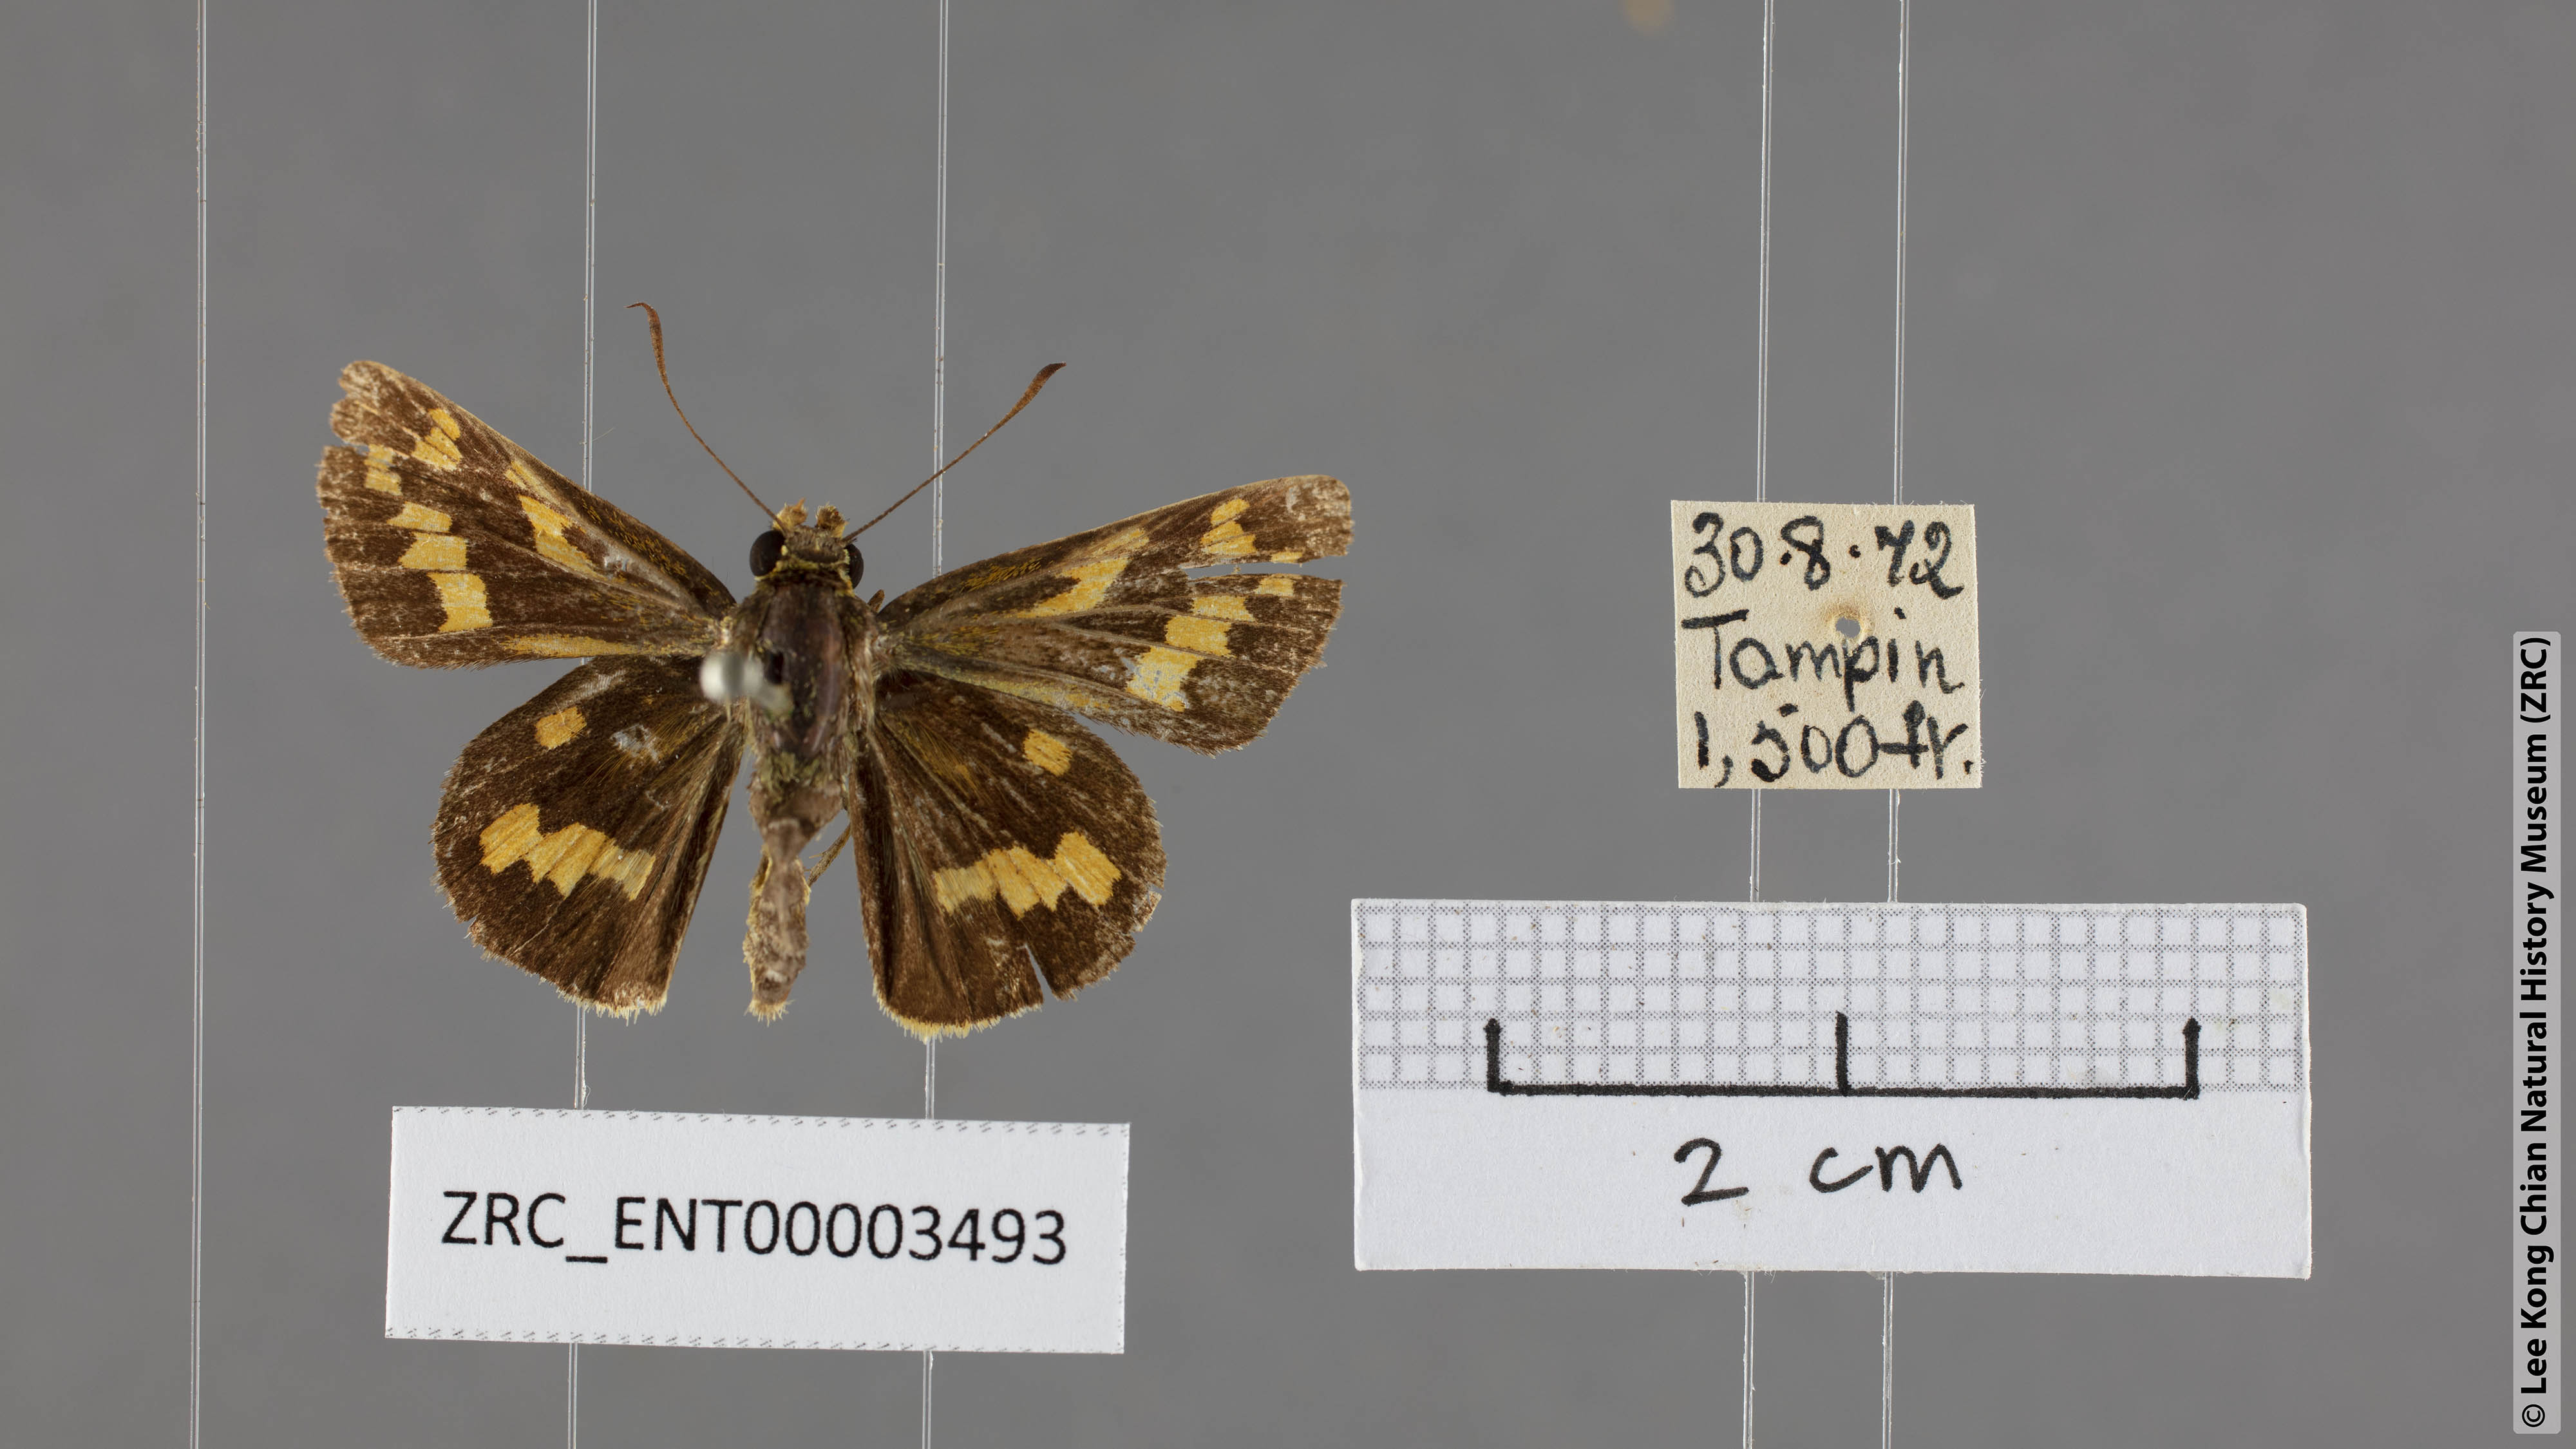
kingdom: Animalia
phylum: Arthropoda
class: Insecta
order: Lepidoptera
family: Hesperiidae
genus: Potanthus
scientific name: Potanthus trachala
